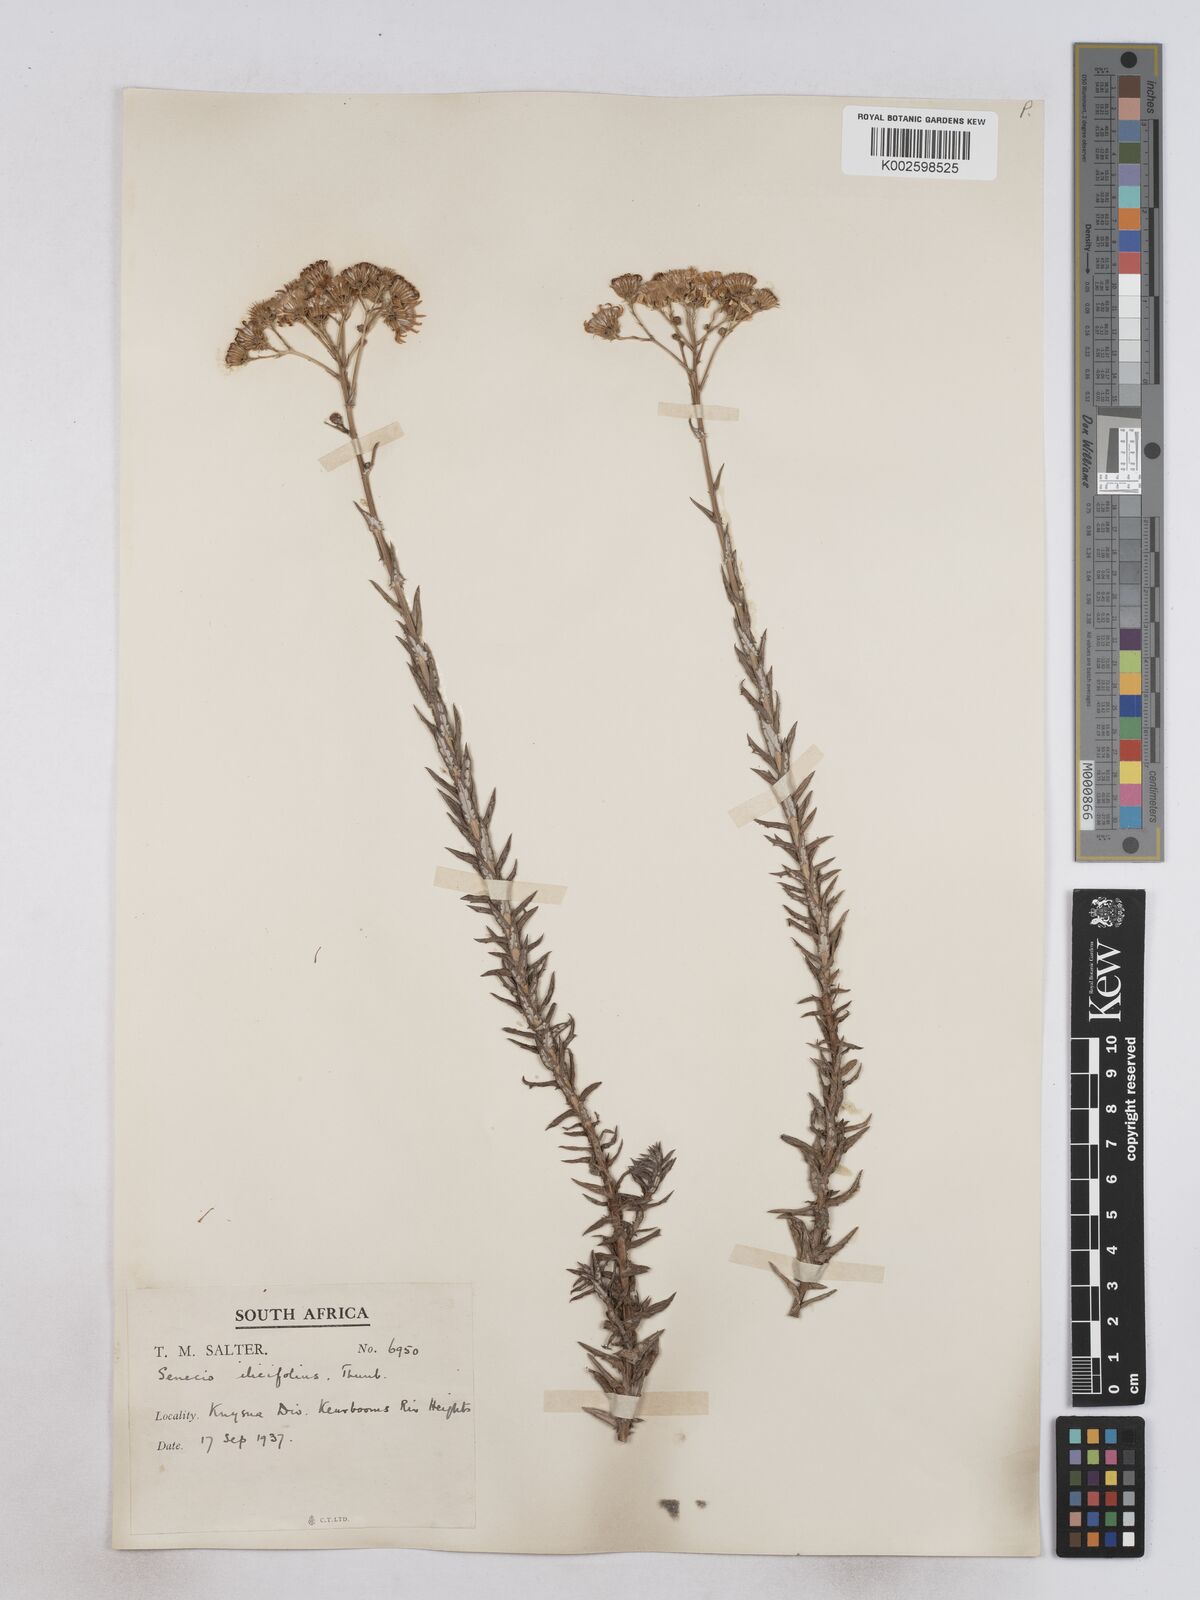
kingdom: Plantae
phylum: Tracheophyta
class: Magnoliopsida
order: Asterales
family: Asteraceae
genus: Senecio
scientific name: Senecio ilicifolius
